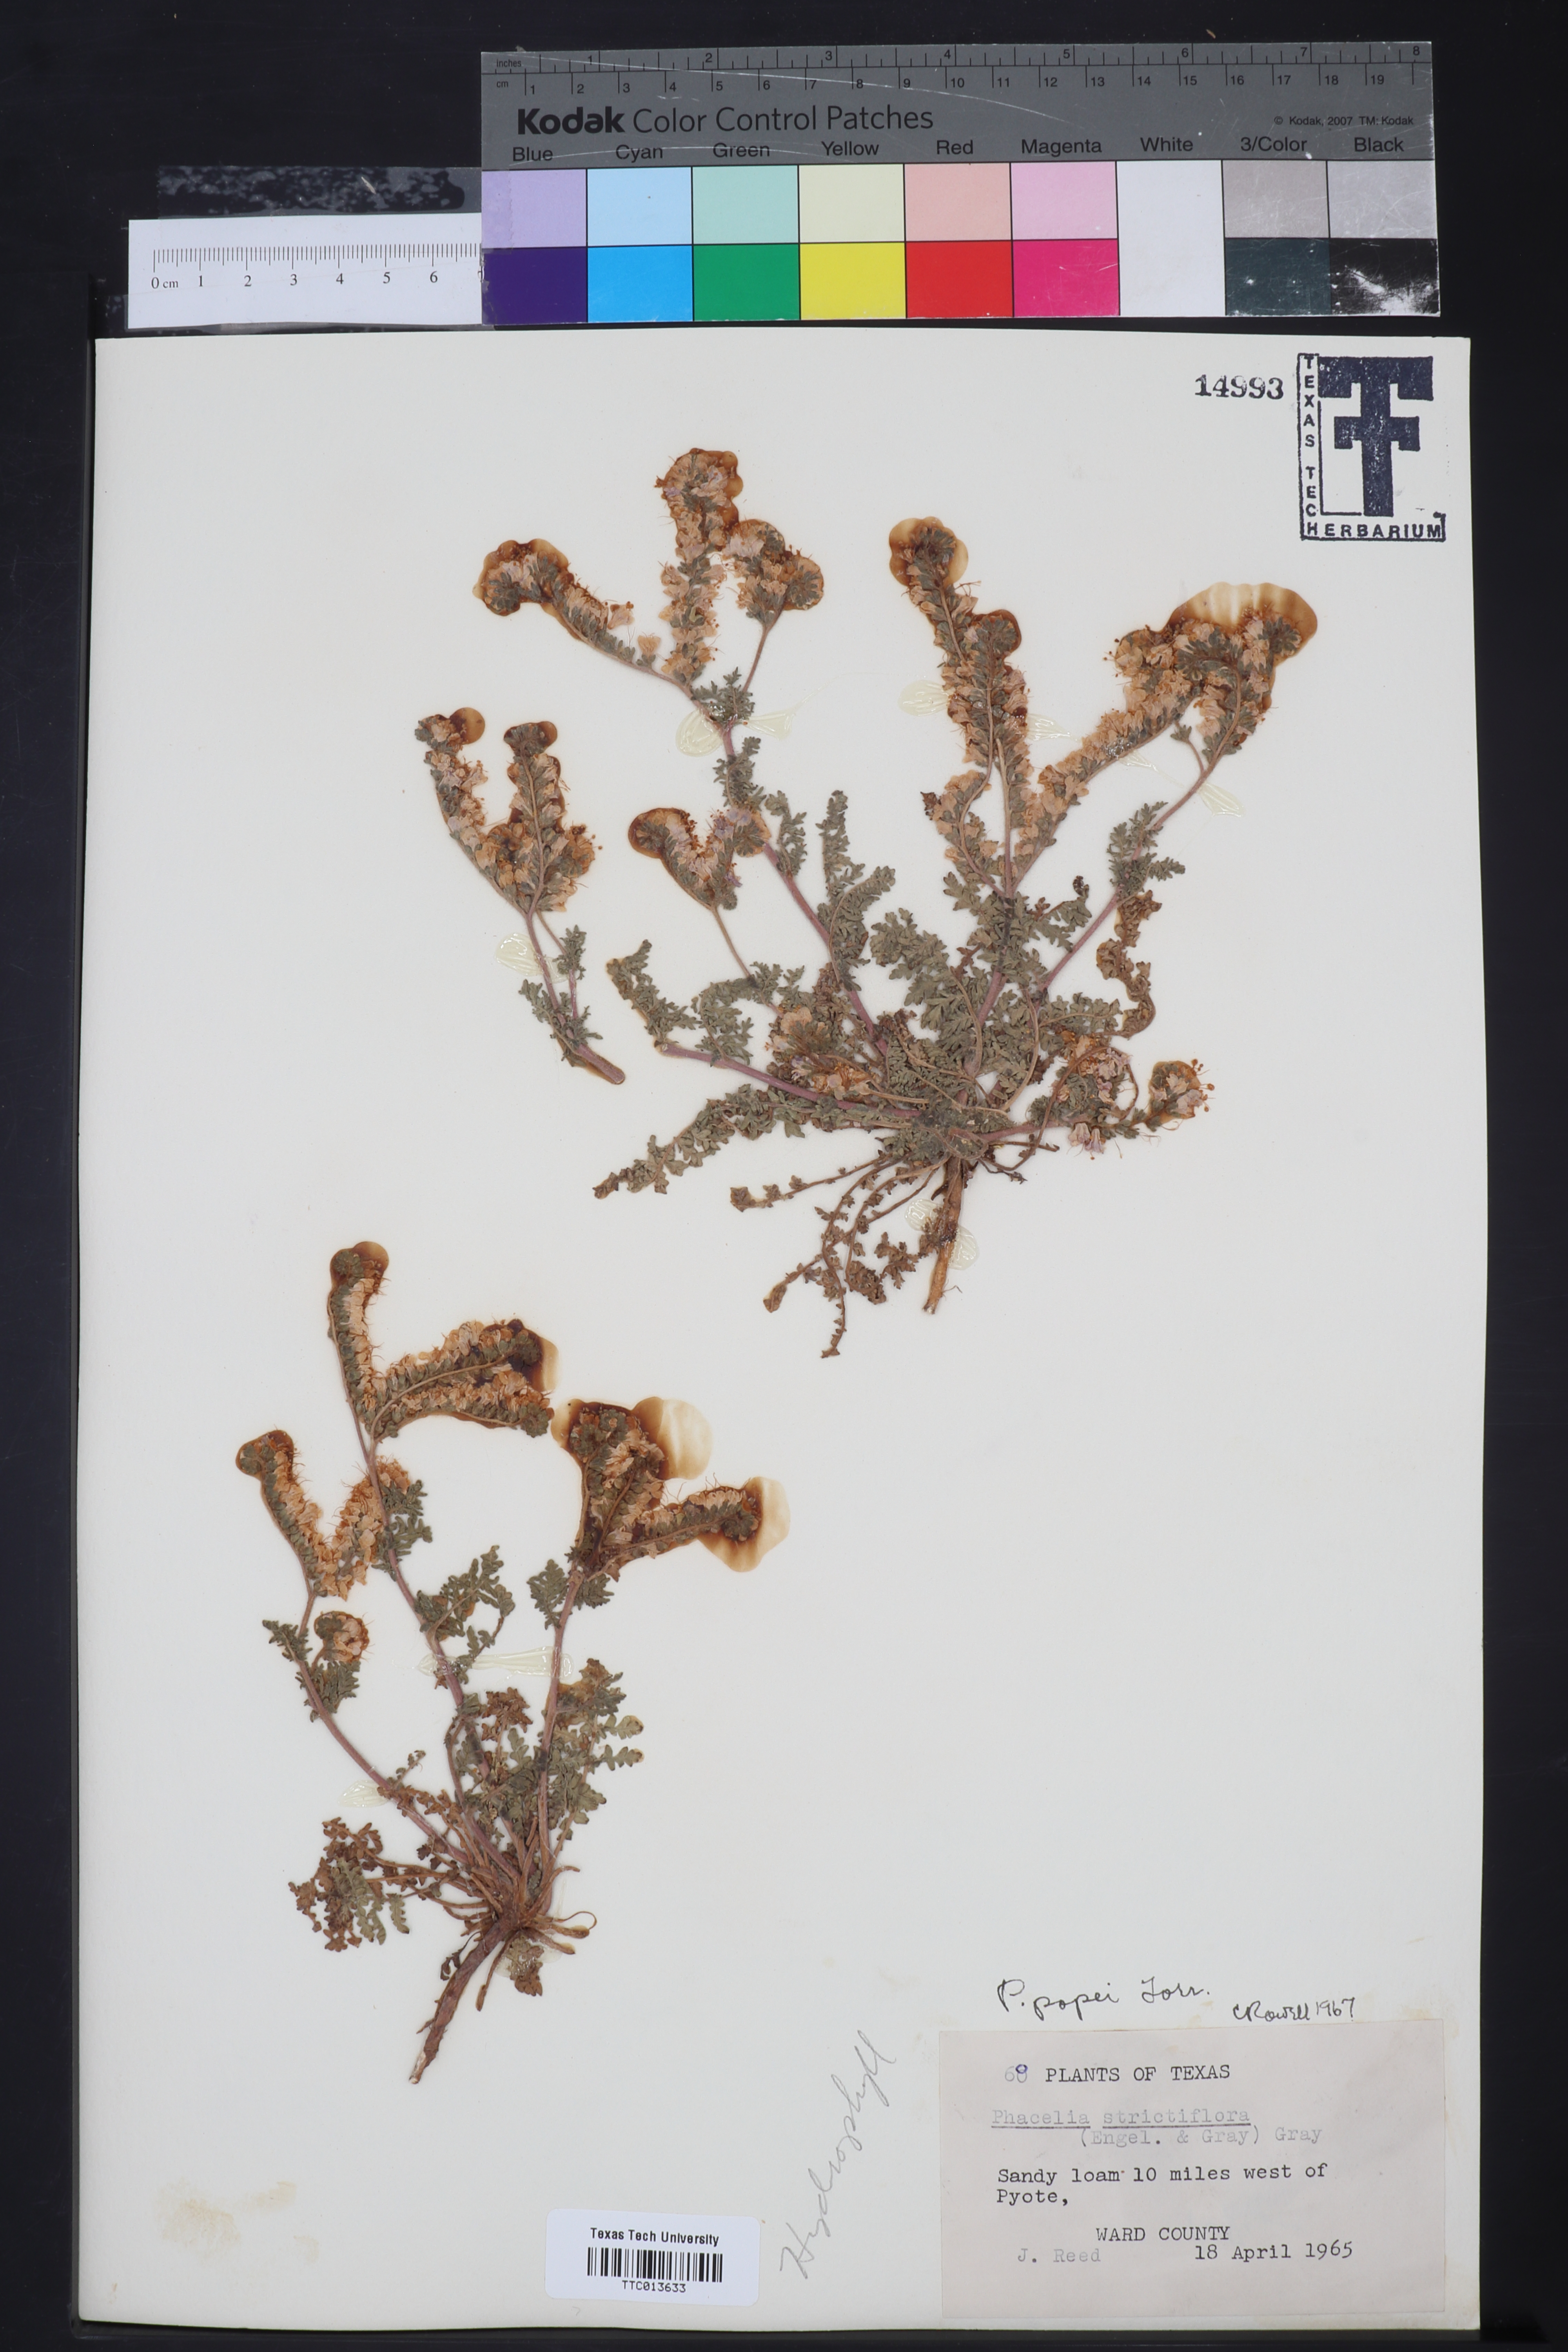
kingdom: Plantae
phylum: Tracheophyta
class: Magnoliopsida
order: Boraginales
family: Hydrophyllaceae
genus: Phacelia
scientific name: Phacelia popei
